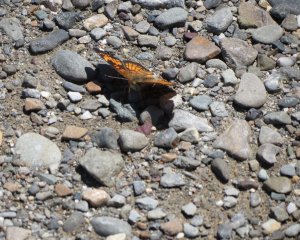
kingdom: Animalia
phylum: Arthropoda
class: Insecta
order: Lepidoptera
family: Nymphalidae
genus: Phyciodes
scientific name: Phyciodes tharos
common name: Northern Crescent
